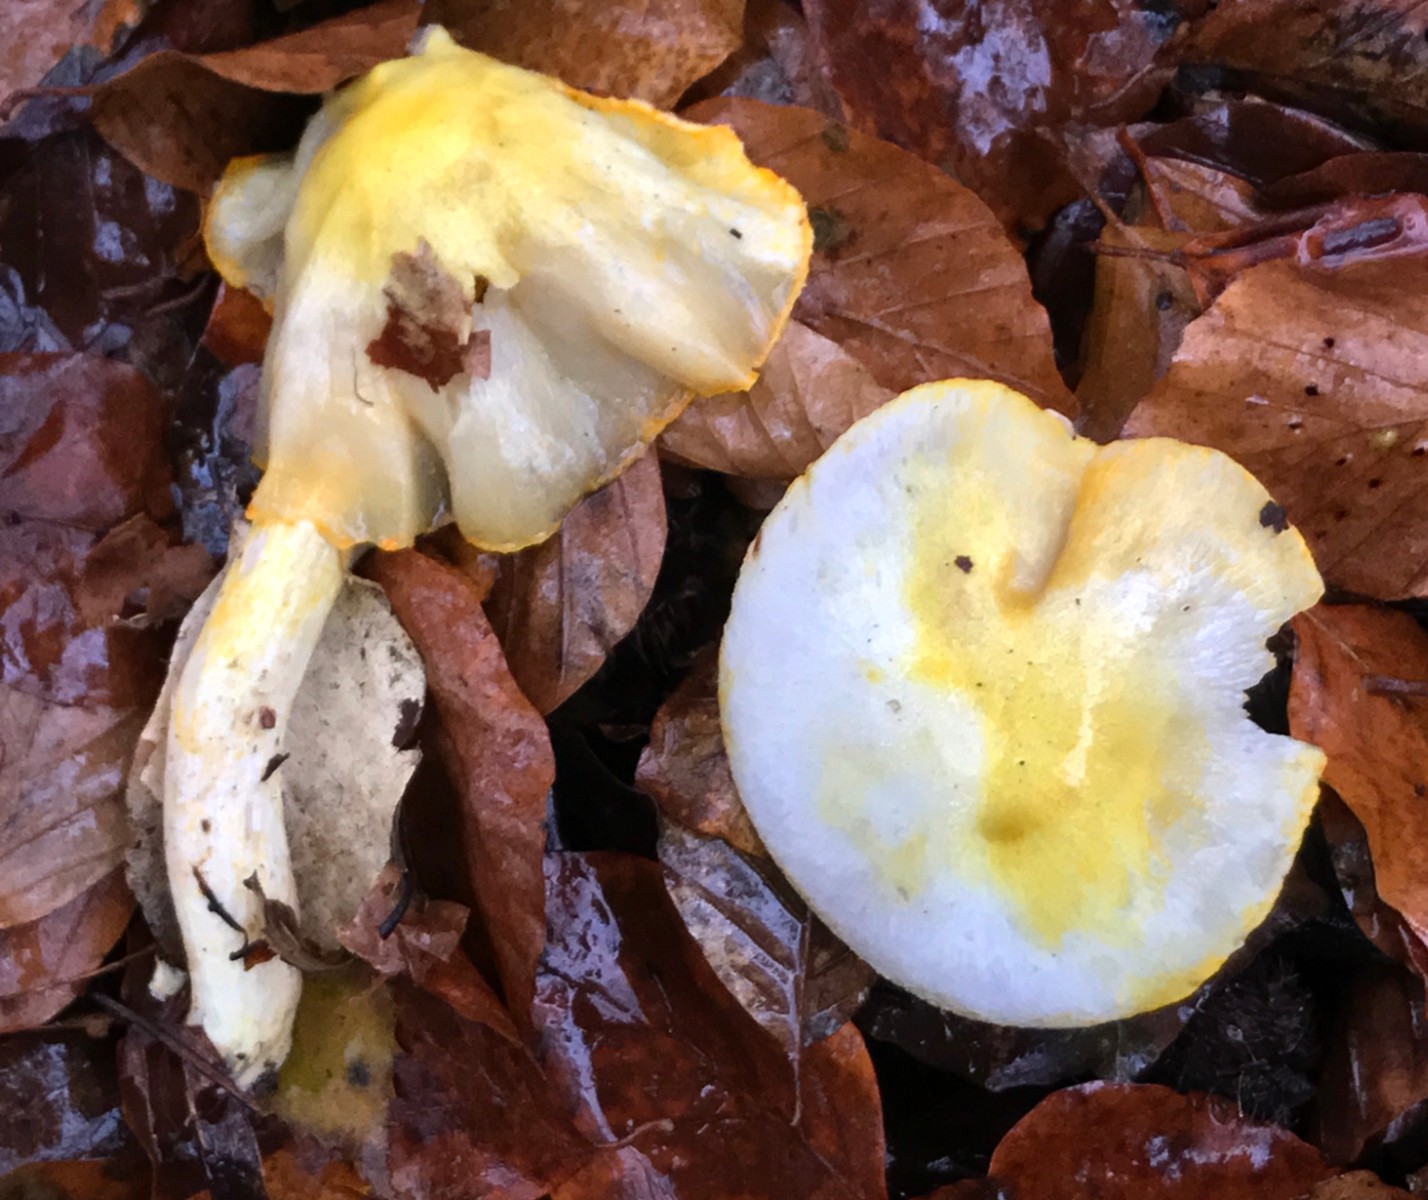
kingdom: Fungi
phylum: Basidiomycota
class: Agaricomycetes
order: Agaricales
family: Hygrophoraceae
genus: Hygrophorus
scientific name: Hygrophorus chrysodon
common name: gulfnugget sneglehat
